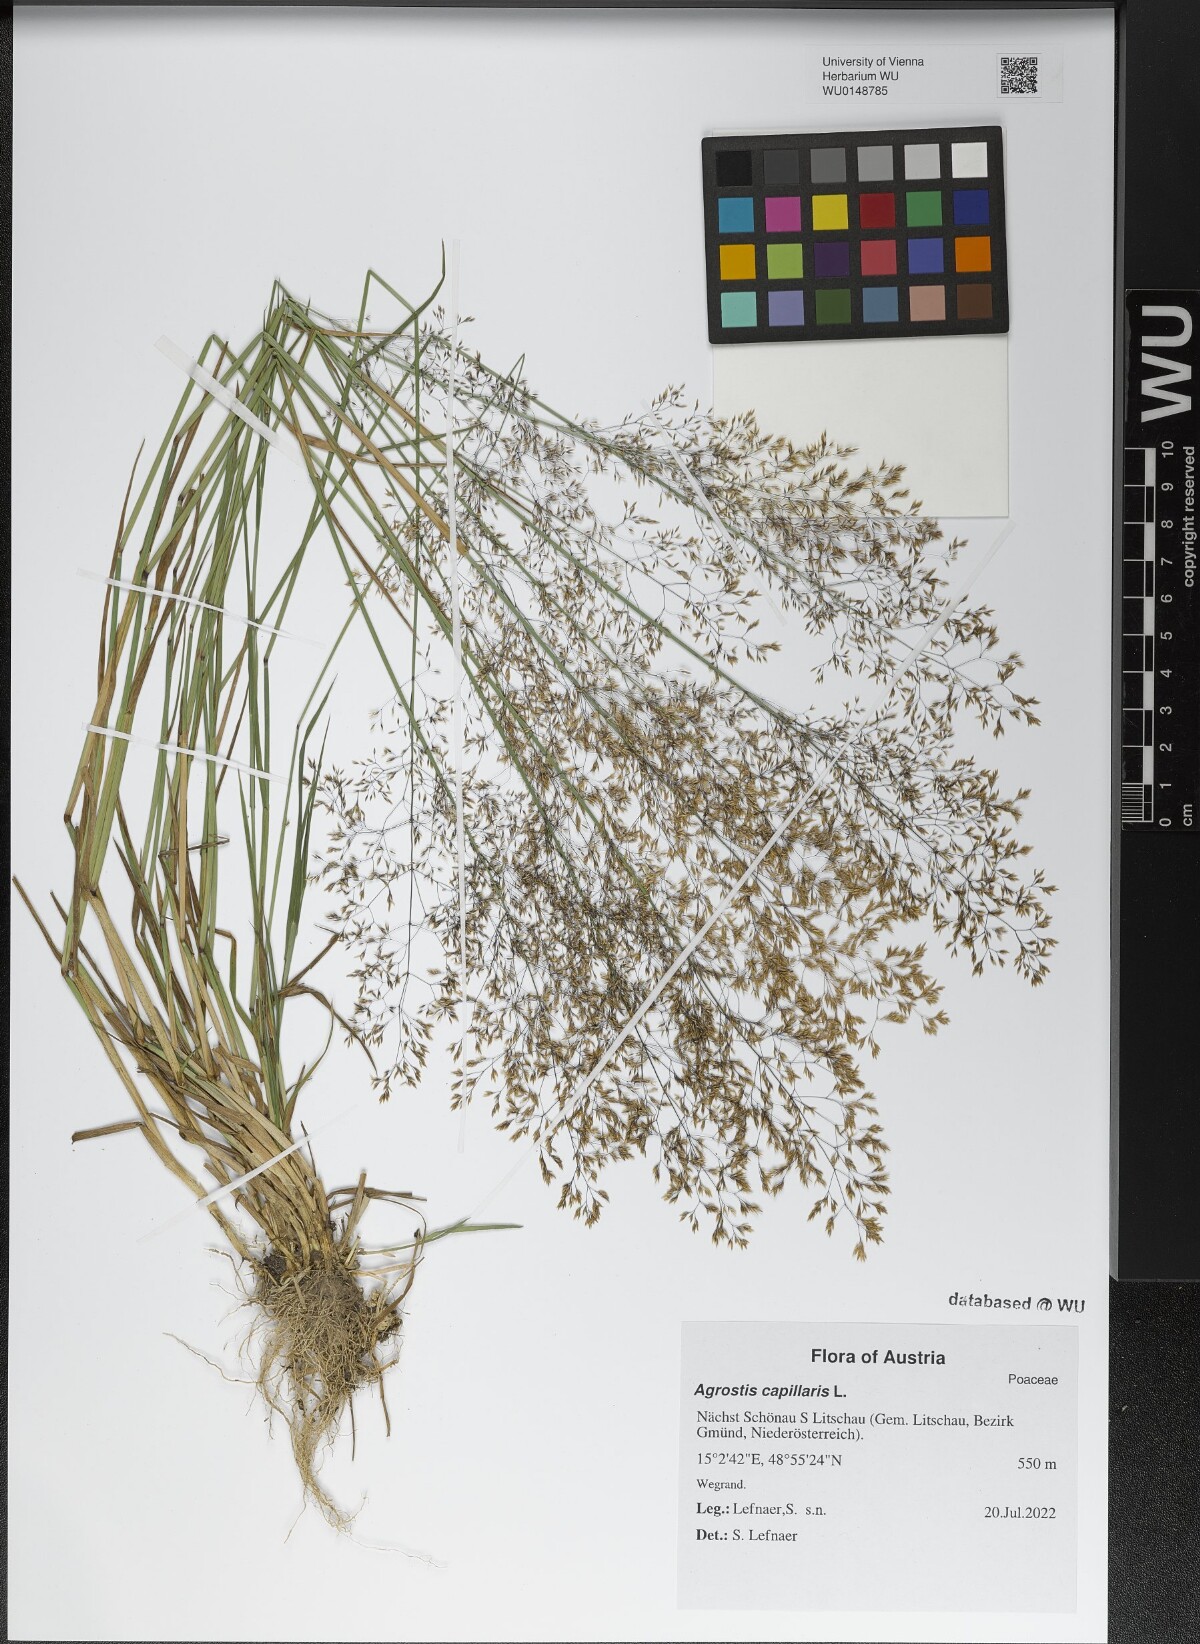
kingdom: Plantae
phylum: Tracheophyta
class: Liliopsida
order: Poales
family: Poaceae
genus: Agrostis
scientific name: Agrostis capillaris
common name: Colonial bentgrass
